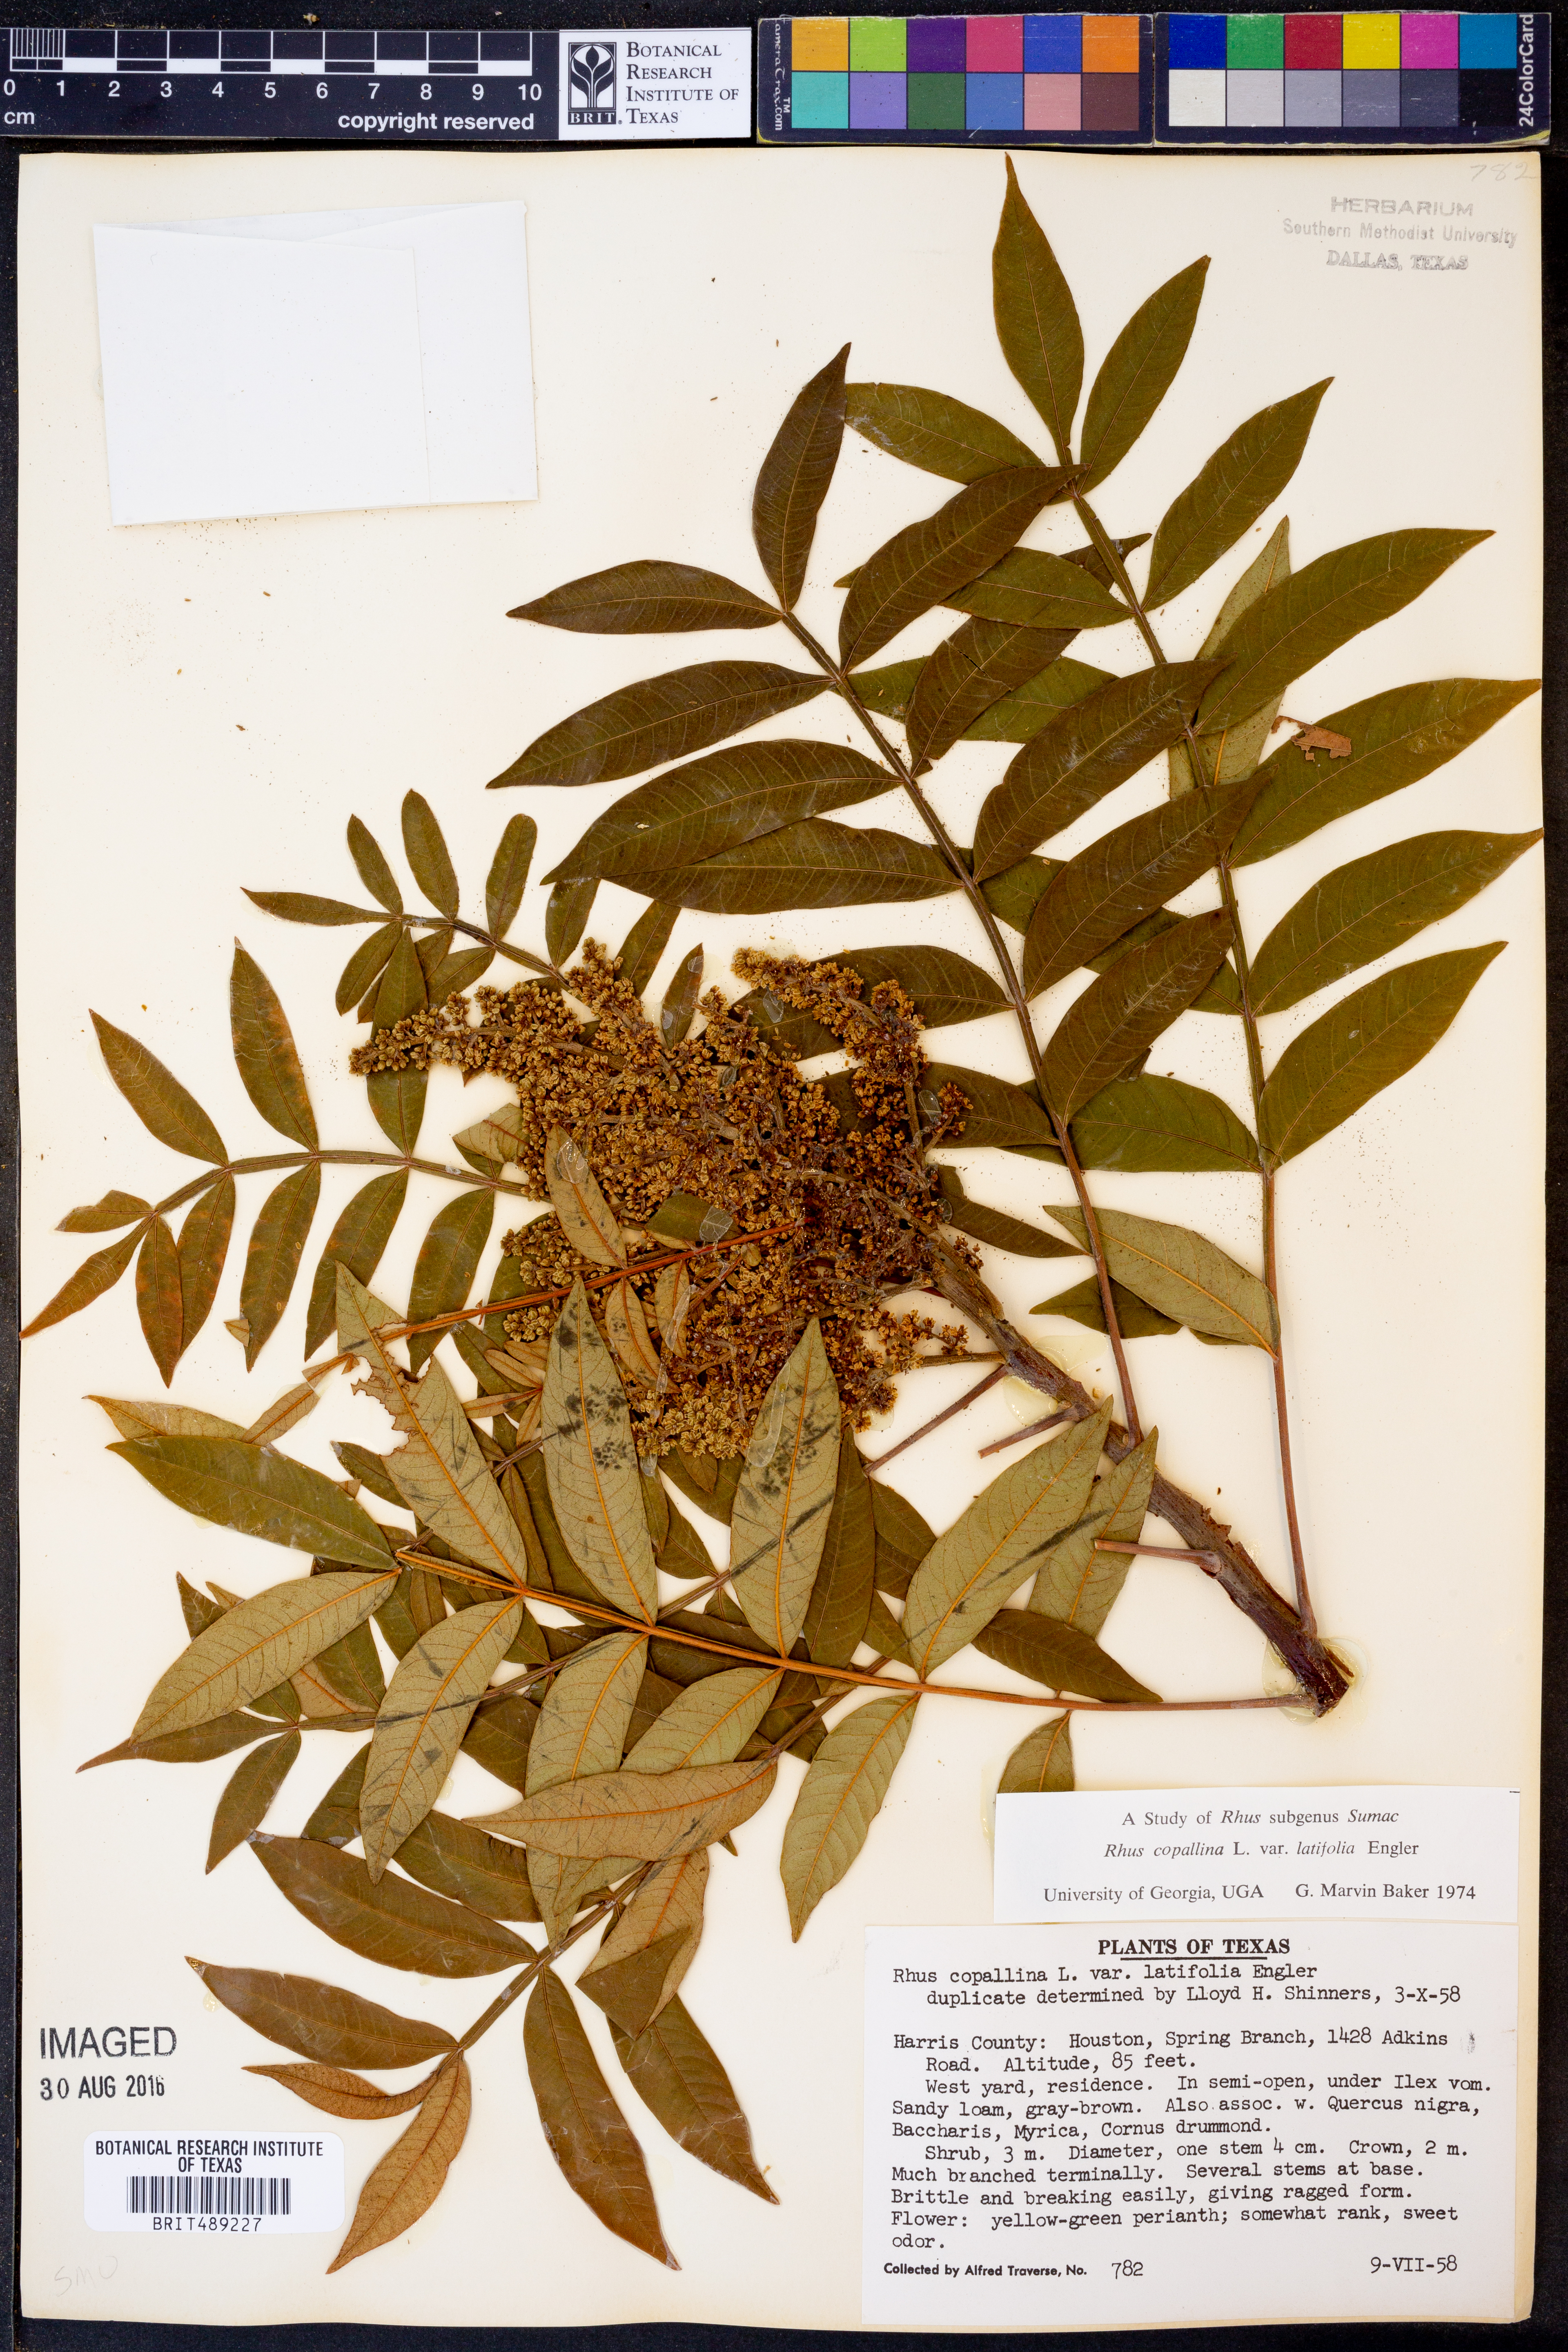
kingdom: Plantae
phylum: Tracheophyta
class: Magnoliopsida
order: Sapindales
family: Anacardiaceae
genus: Rhus
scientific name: Rhus copallina
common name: Shining sumac
